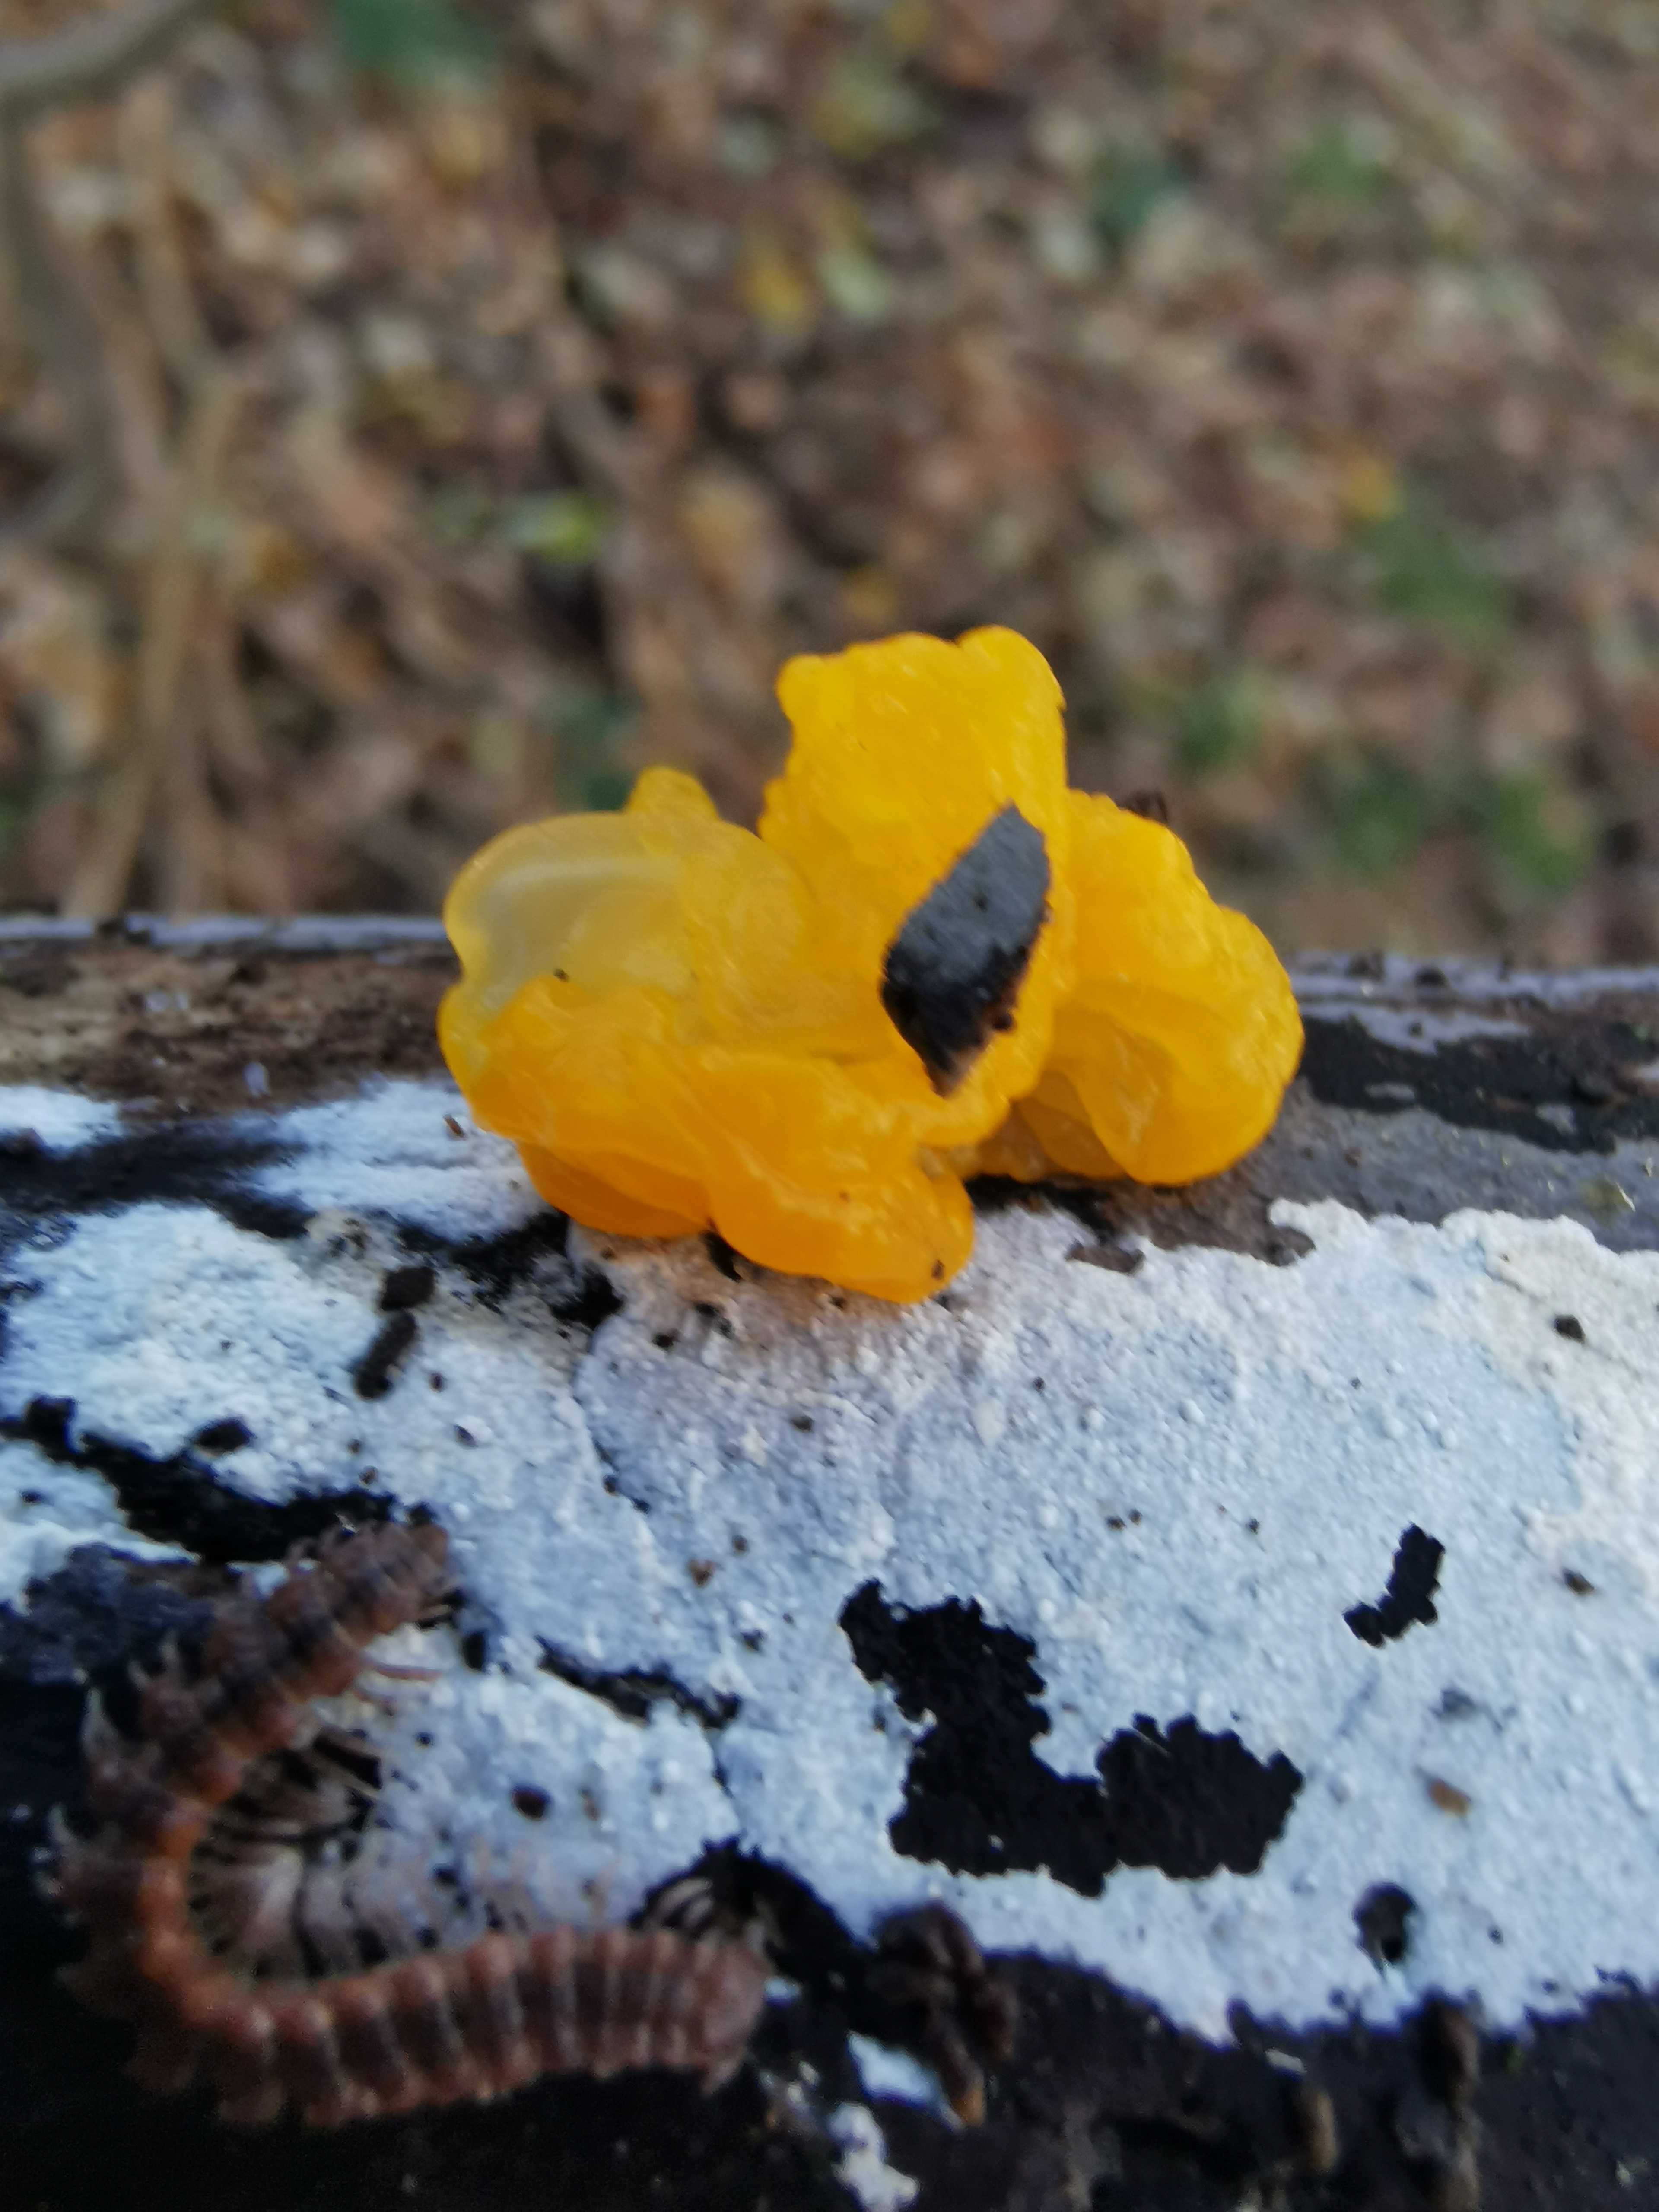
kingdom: Fungi
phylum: Basidiomycota
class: Tremellomycetes
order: Tremellales
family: Tremellaceae
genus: Tremella
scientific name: Tremella mesenterica
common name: gul bævresvamp
